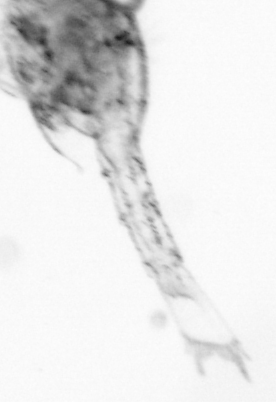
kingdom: Animalia
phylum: Arthropoda
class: Copepoda
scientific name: Copepoda
